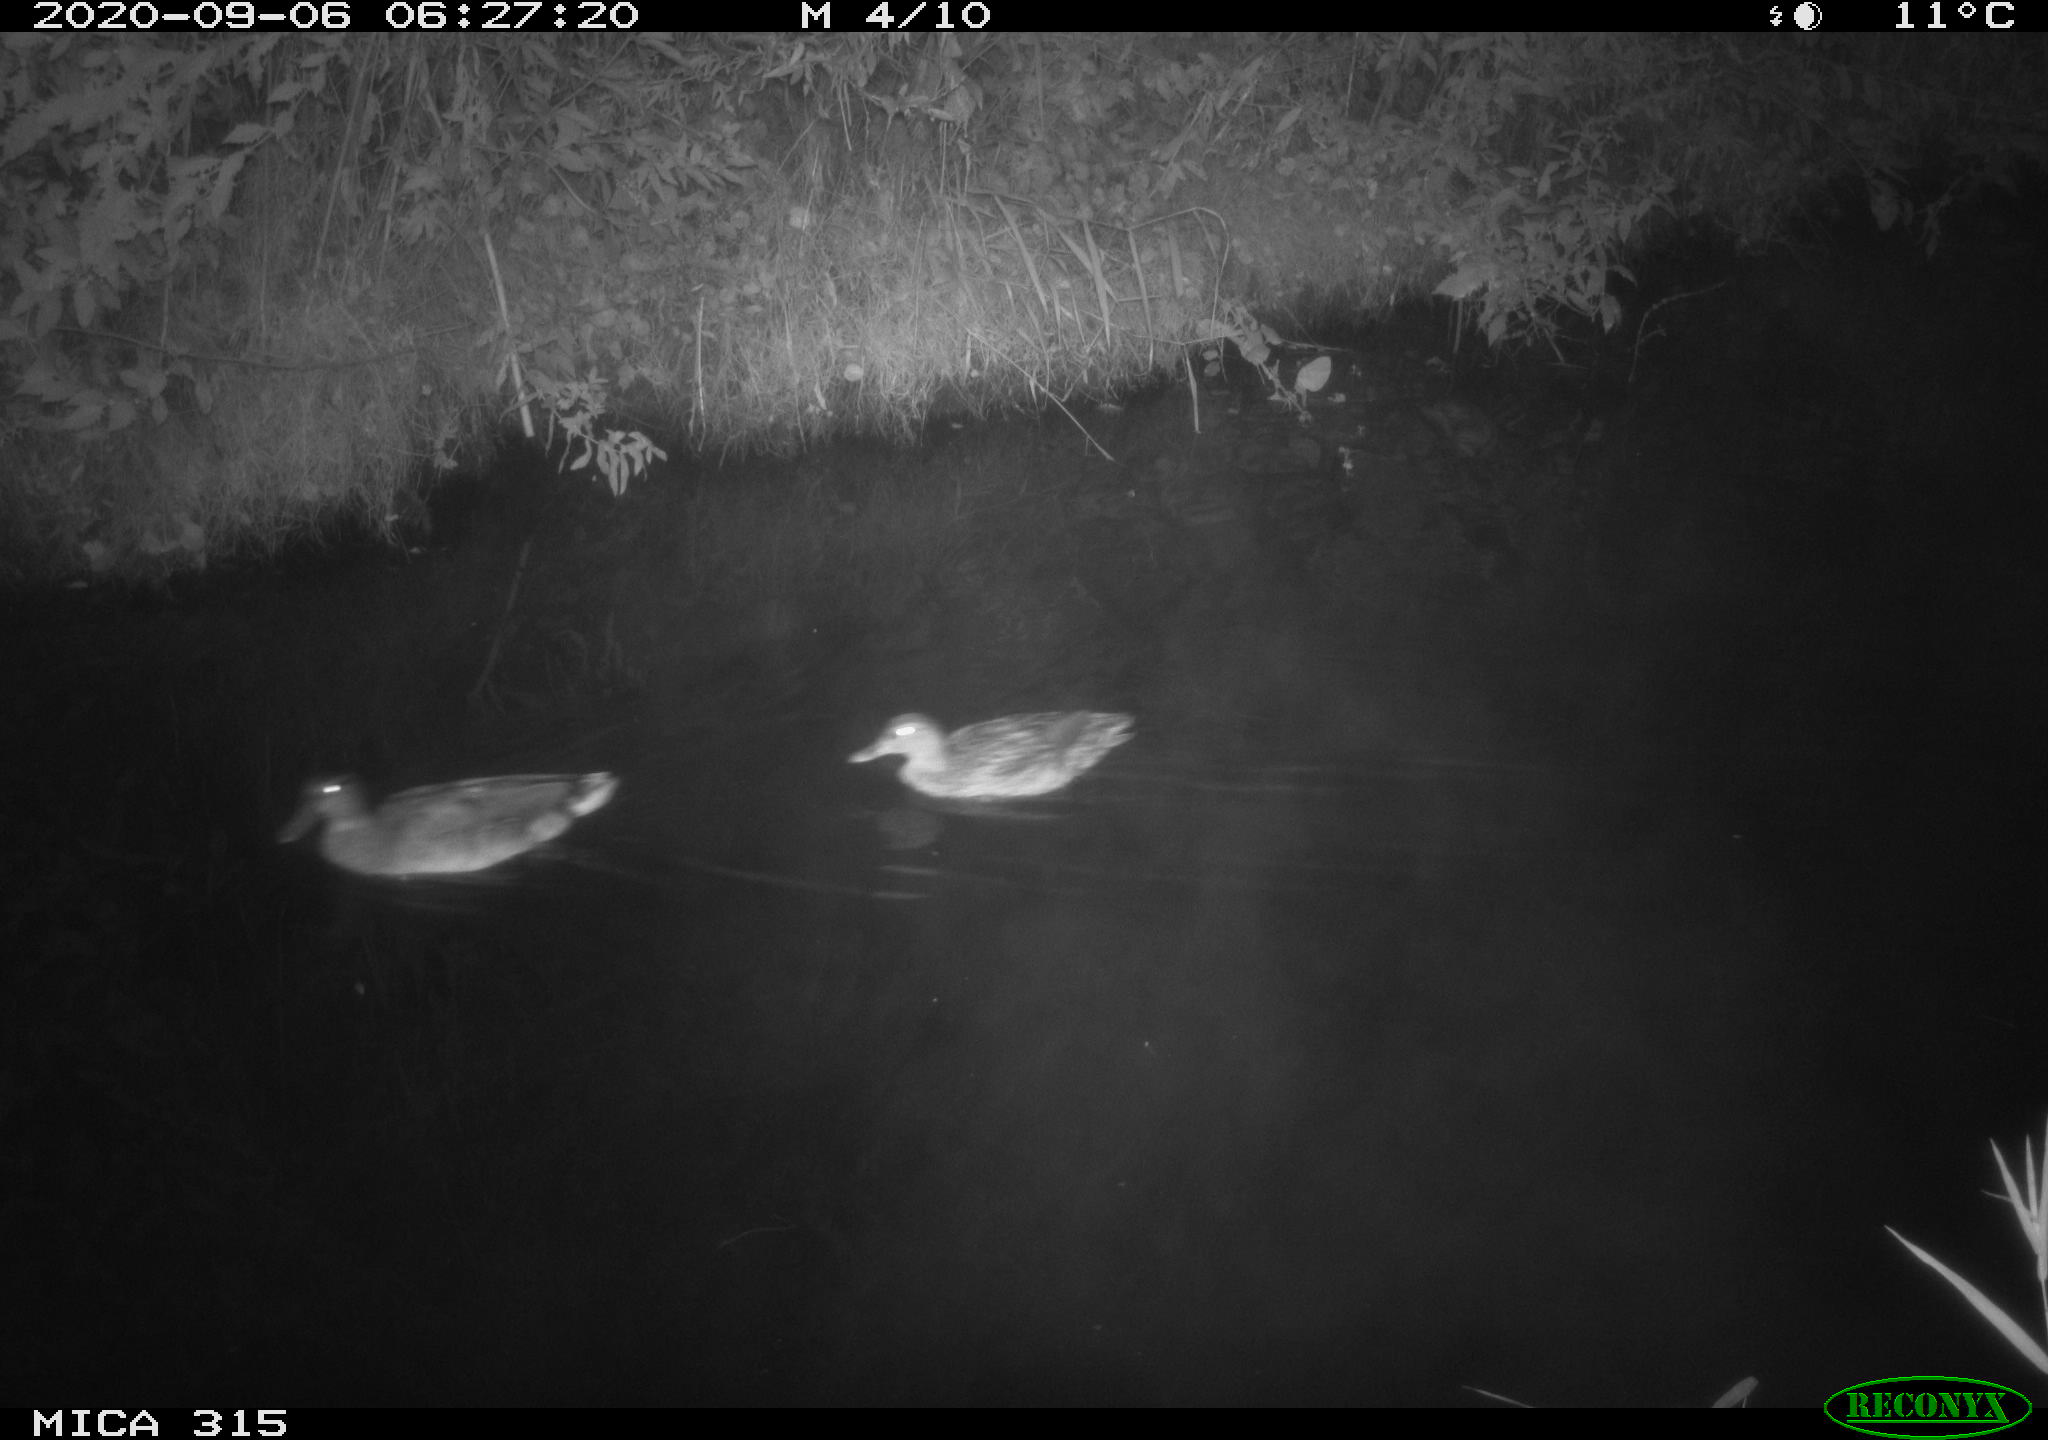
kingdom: Animalia
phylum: Chordata
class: Aves
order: Anseriformes
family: Anatidae
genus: Anas
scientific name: Anas platyrhynchos
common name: Mallard
